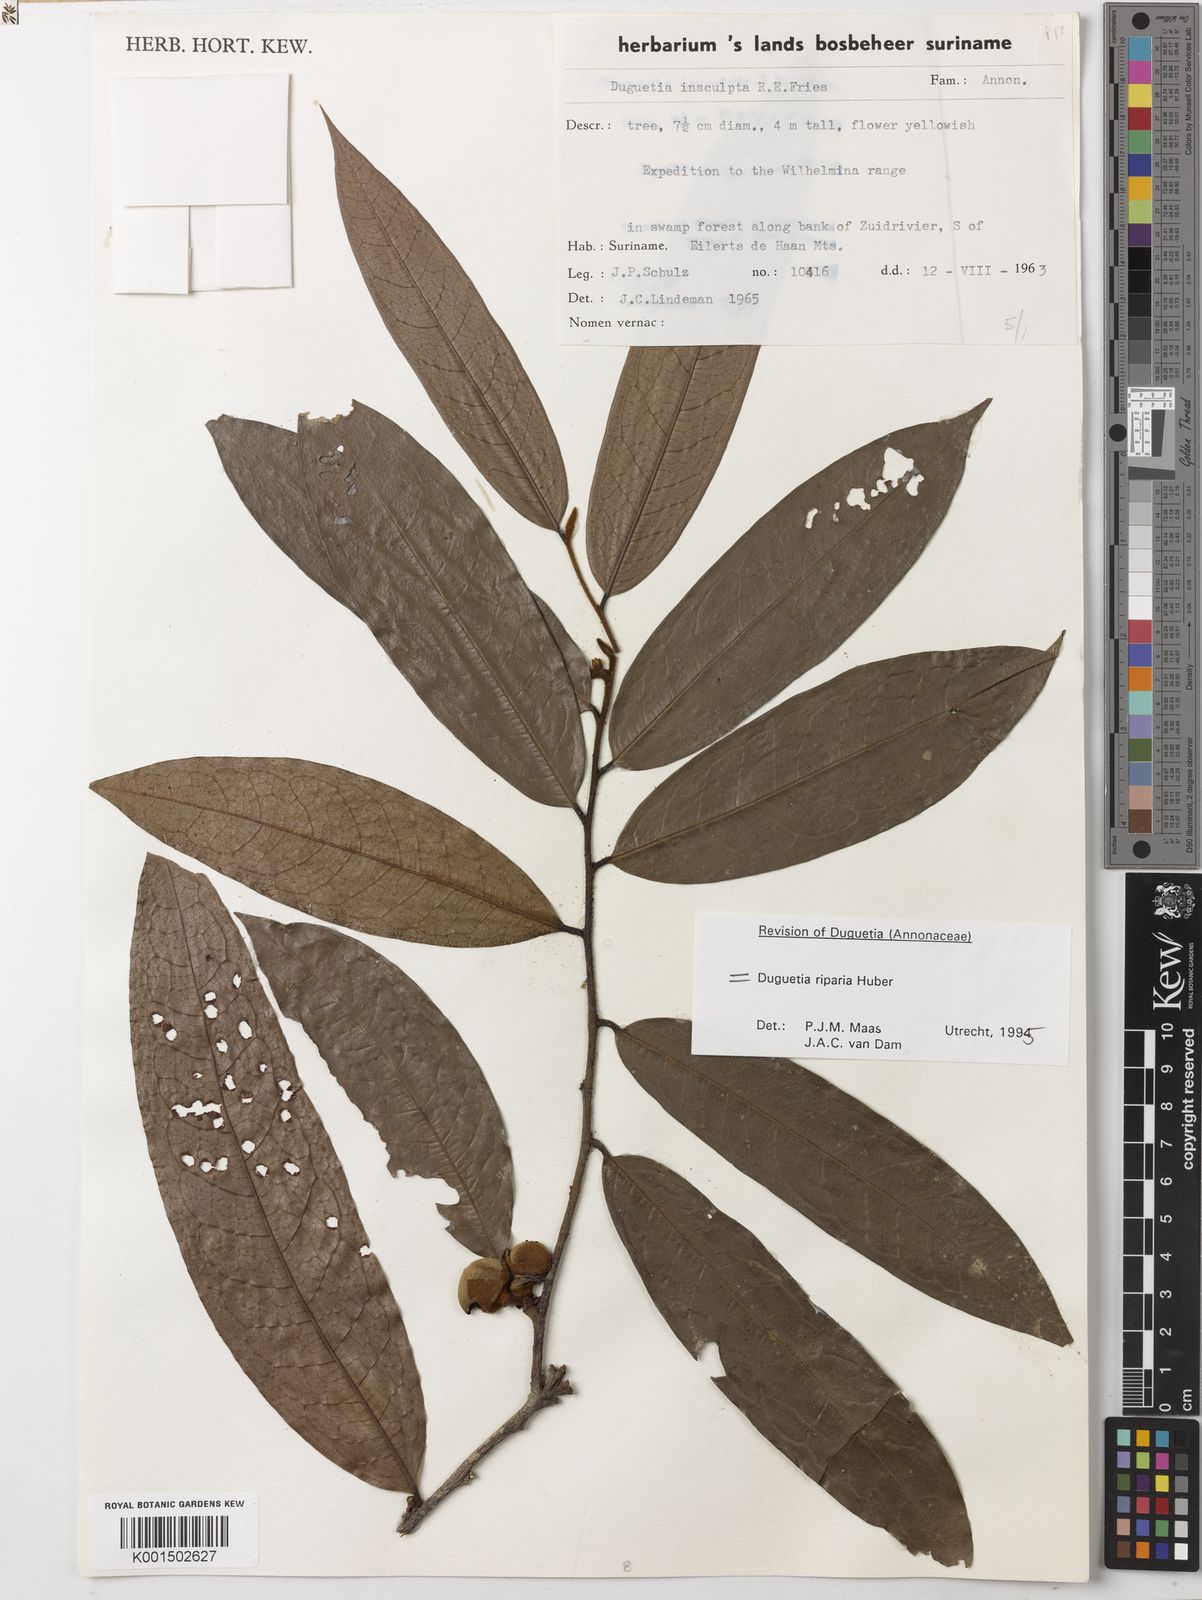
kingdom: Plantae
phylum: Tracheophyta
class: Magnoliopsida
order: Magnoliales
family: Annonaceae
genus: Duguetia
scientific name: Duguetia riparia
